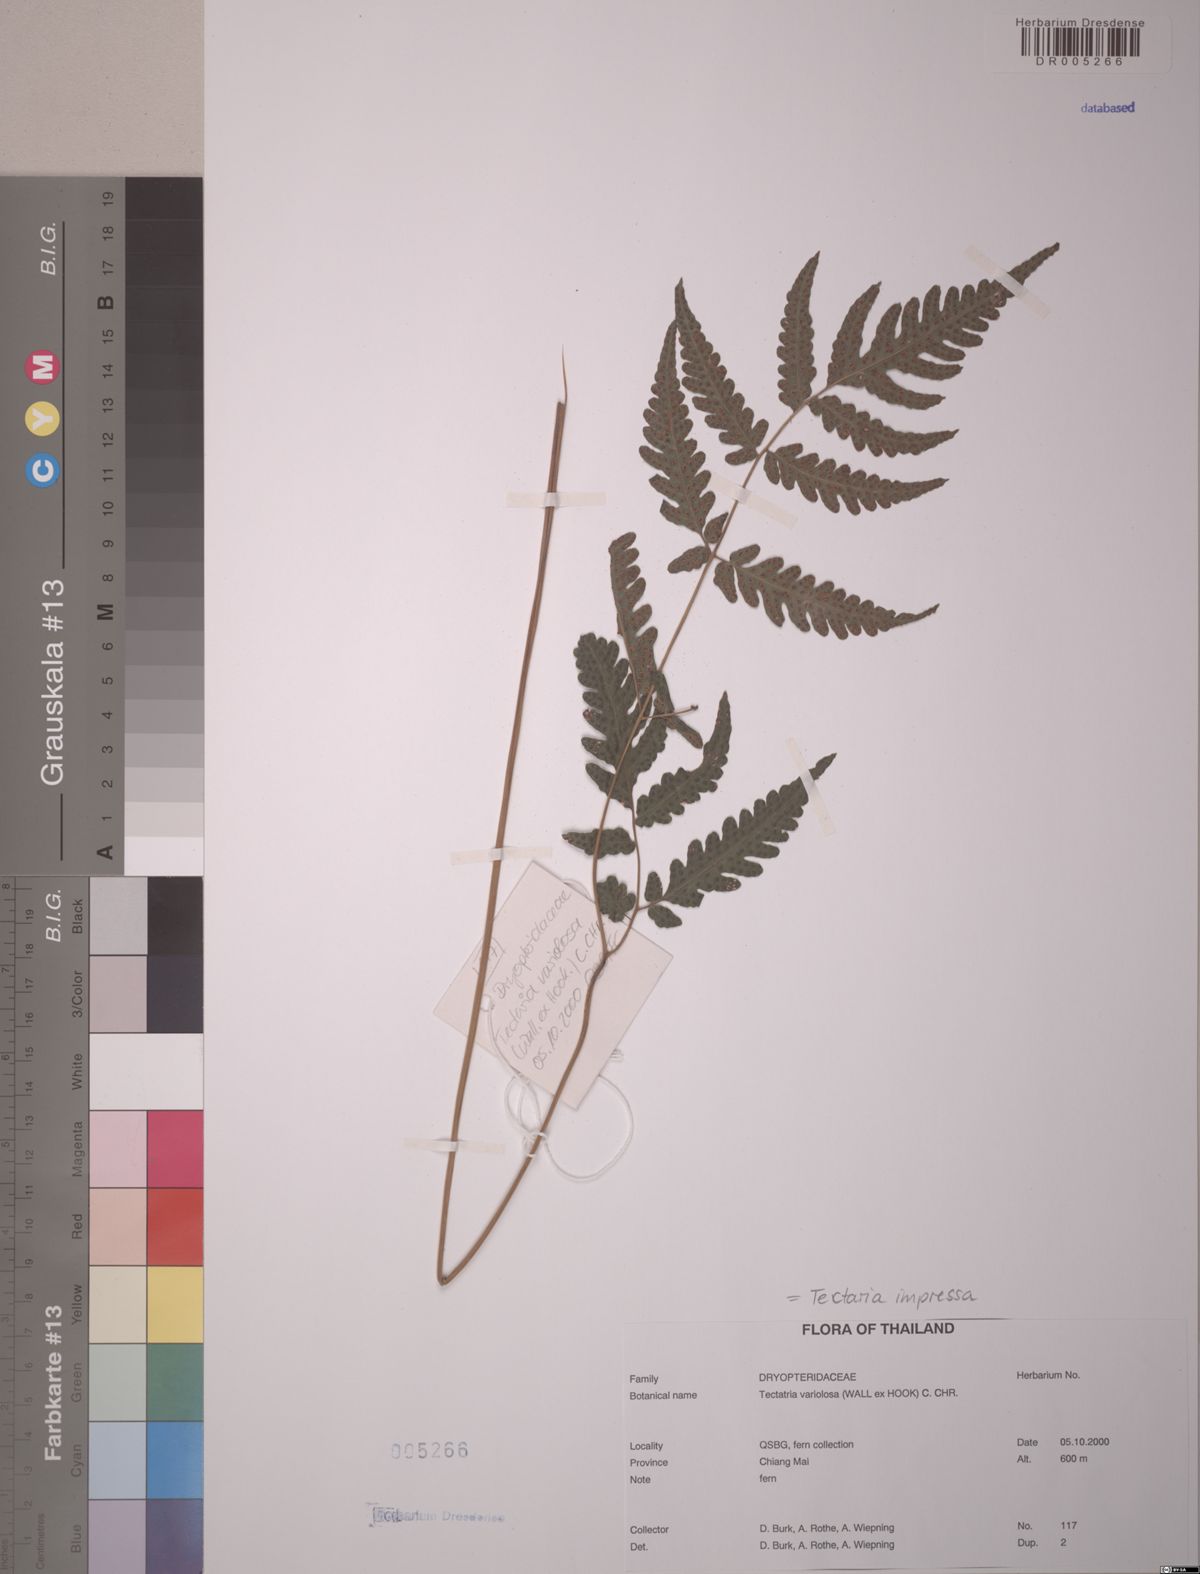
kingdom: Plantae
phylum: Tracheophyta
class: Polypodiopsida
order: Polypodiales
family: Tectariaceae
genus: Tectaria
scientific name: Tectaria impressa
